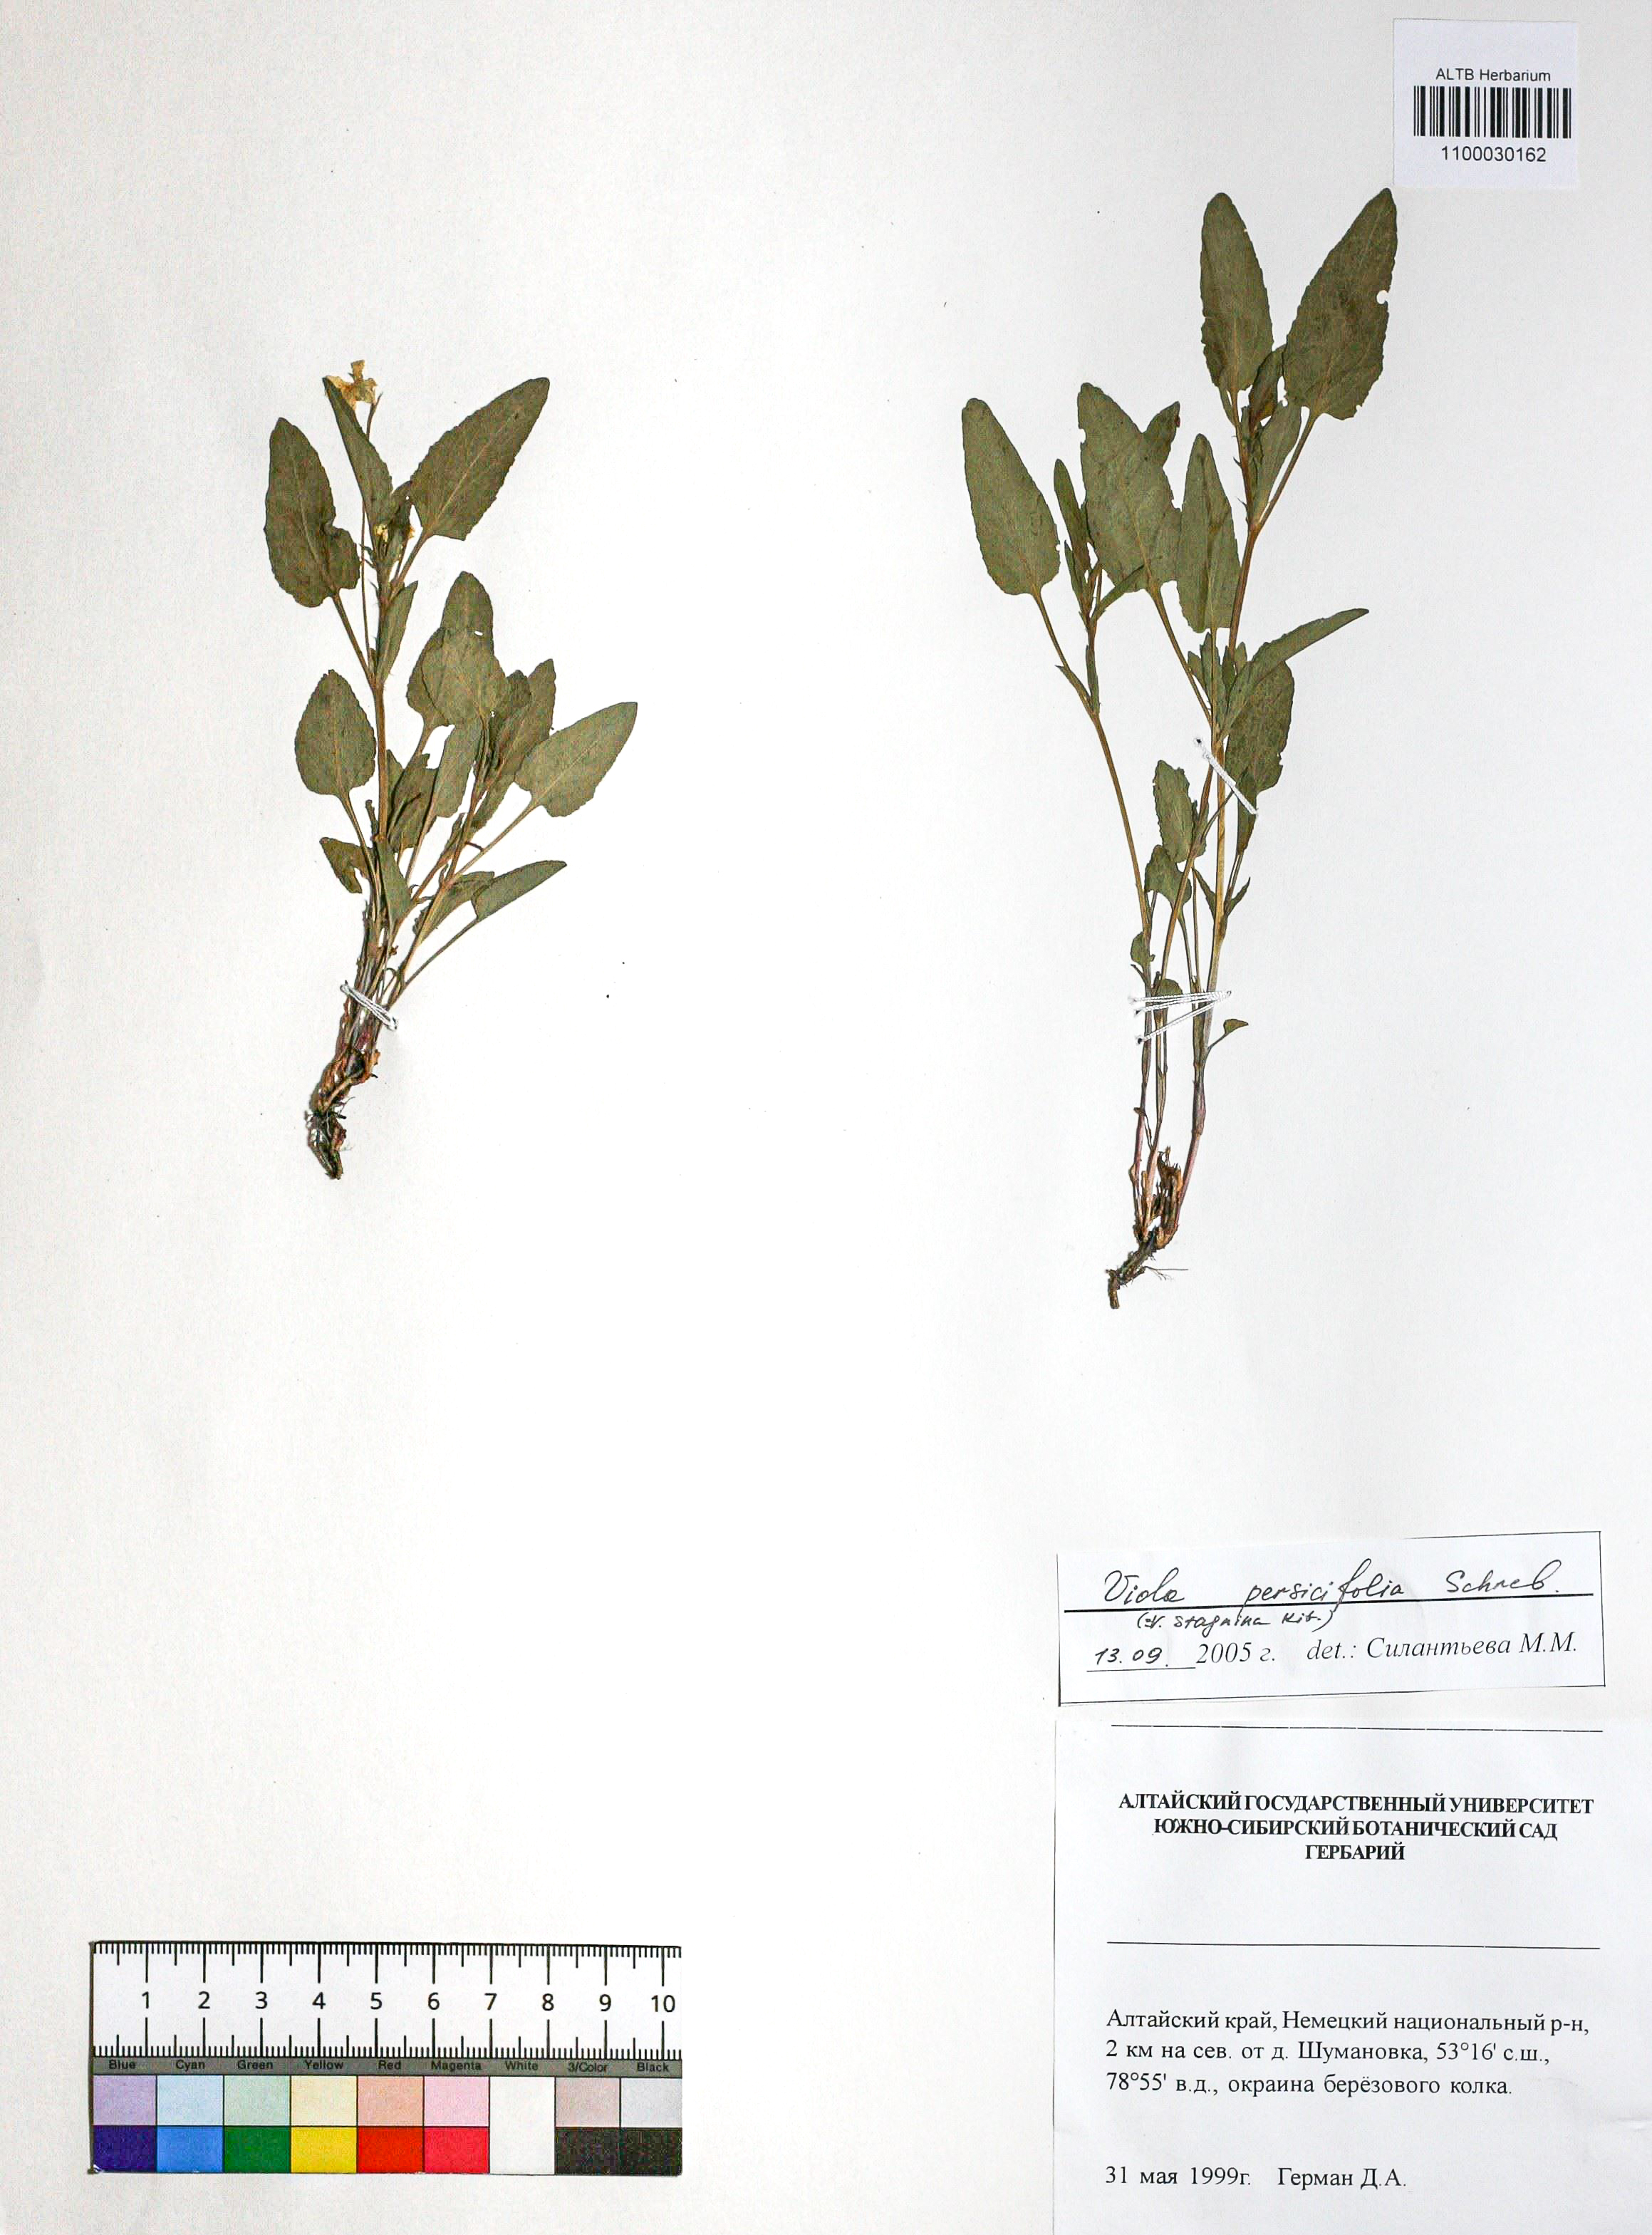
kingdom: Plantae
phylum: Tracheophyta
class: Magnoliopsida
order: Malpighiales
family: Violaceae
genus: Viola
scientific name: Viola stagnina
